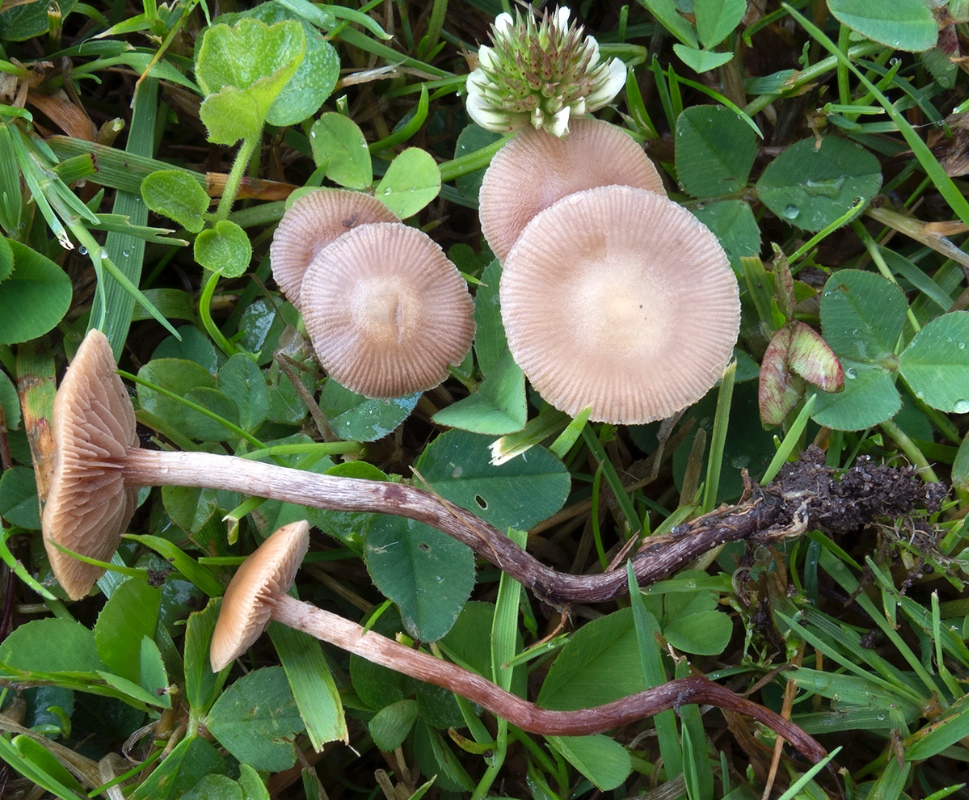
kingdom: Fungi
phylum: Basidiomycota
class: Agaricomycetes
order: Agaricales
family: Strophariaceae
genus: Deconica
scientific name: Deconica inquilina
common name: græs-stråhat
